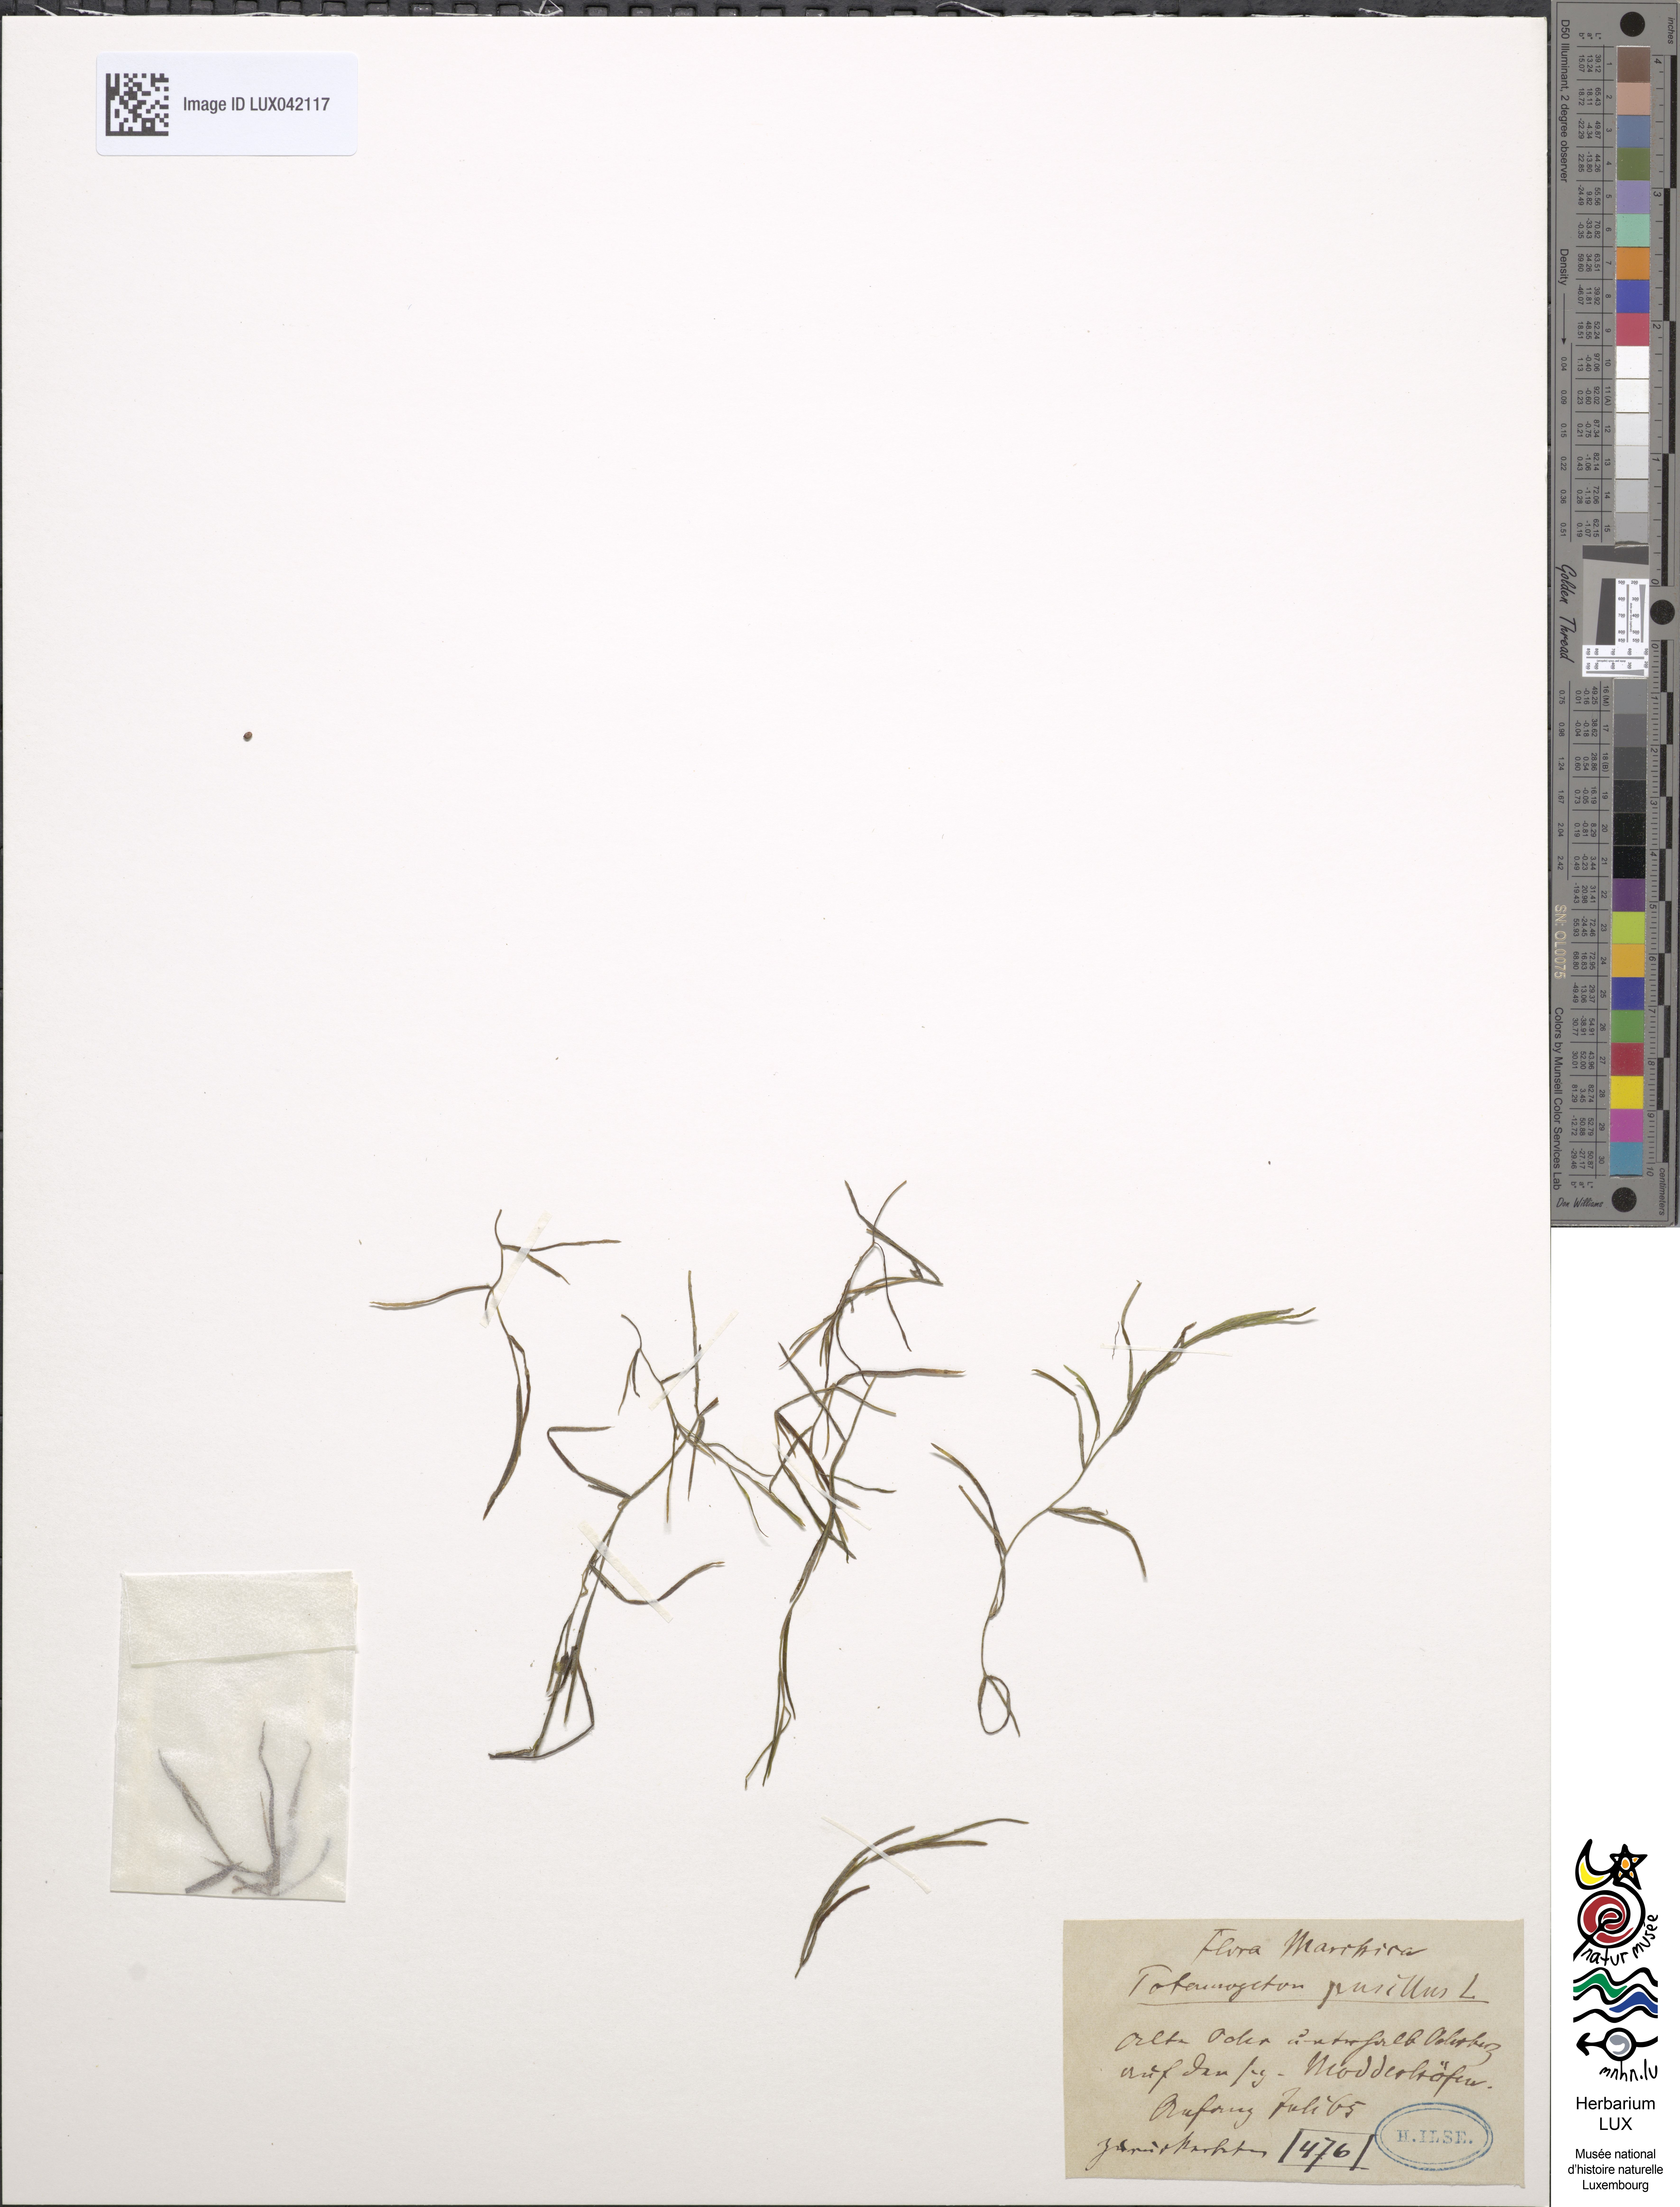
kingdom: Plantae
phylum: Tracheophyta
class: Liliopsida
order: Alismatales
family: Potamogetonaceae
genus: Potamogeton
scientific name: Potamogeton pusillus
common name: Lesser pondweed
